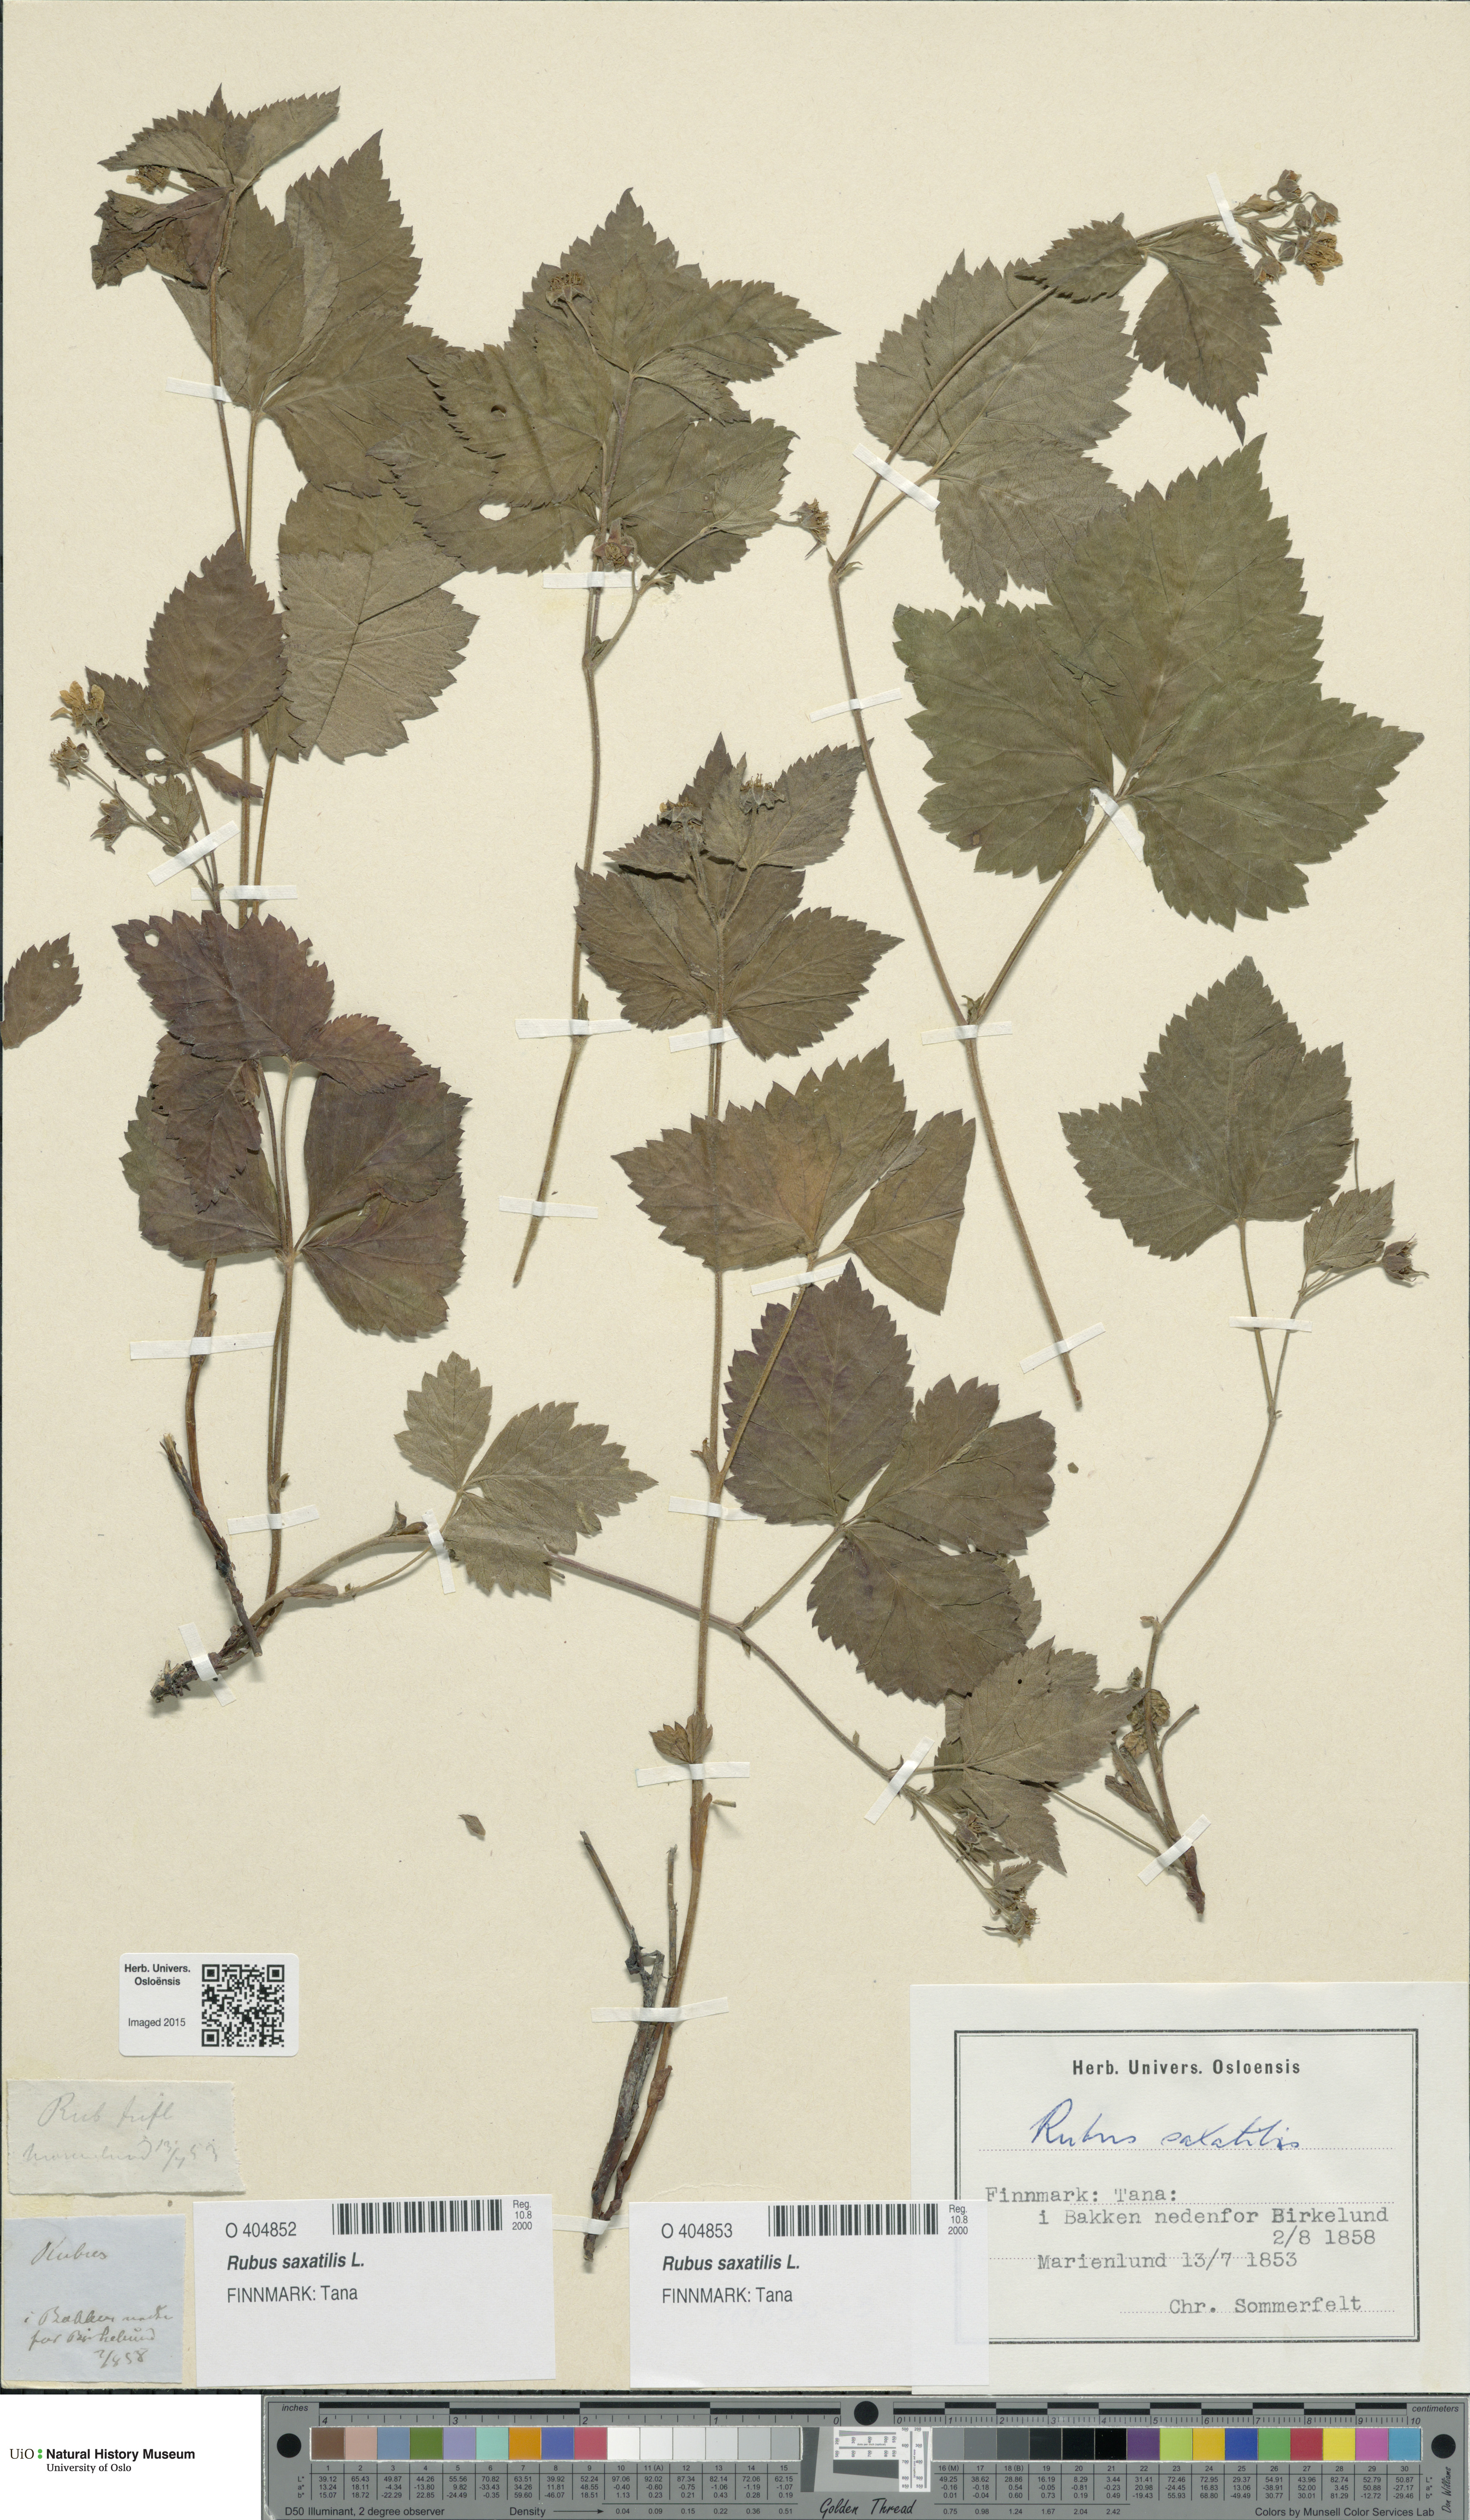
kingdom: Plantae
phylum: Tracheophyta
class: Magnoliopsida
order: Rosales
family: Rosaceae
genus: Rubus
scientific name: Rubus saxatilis
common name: Stone bramble
